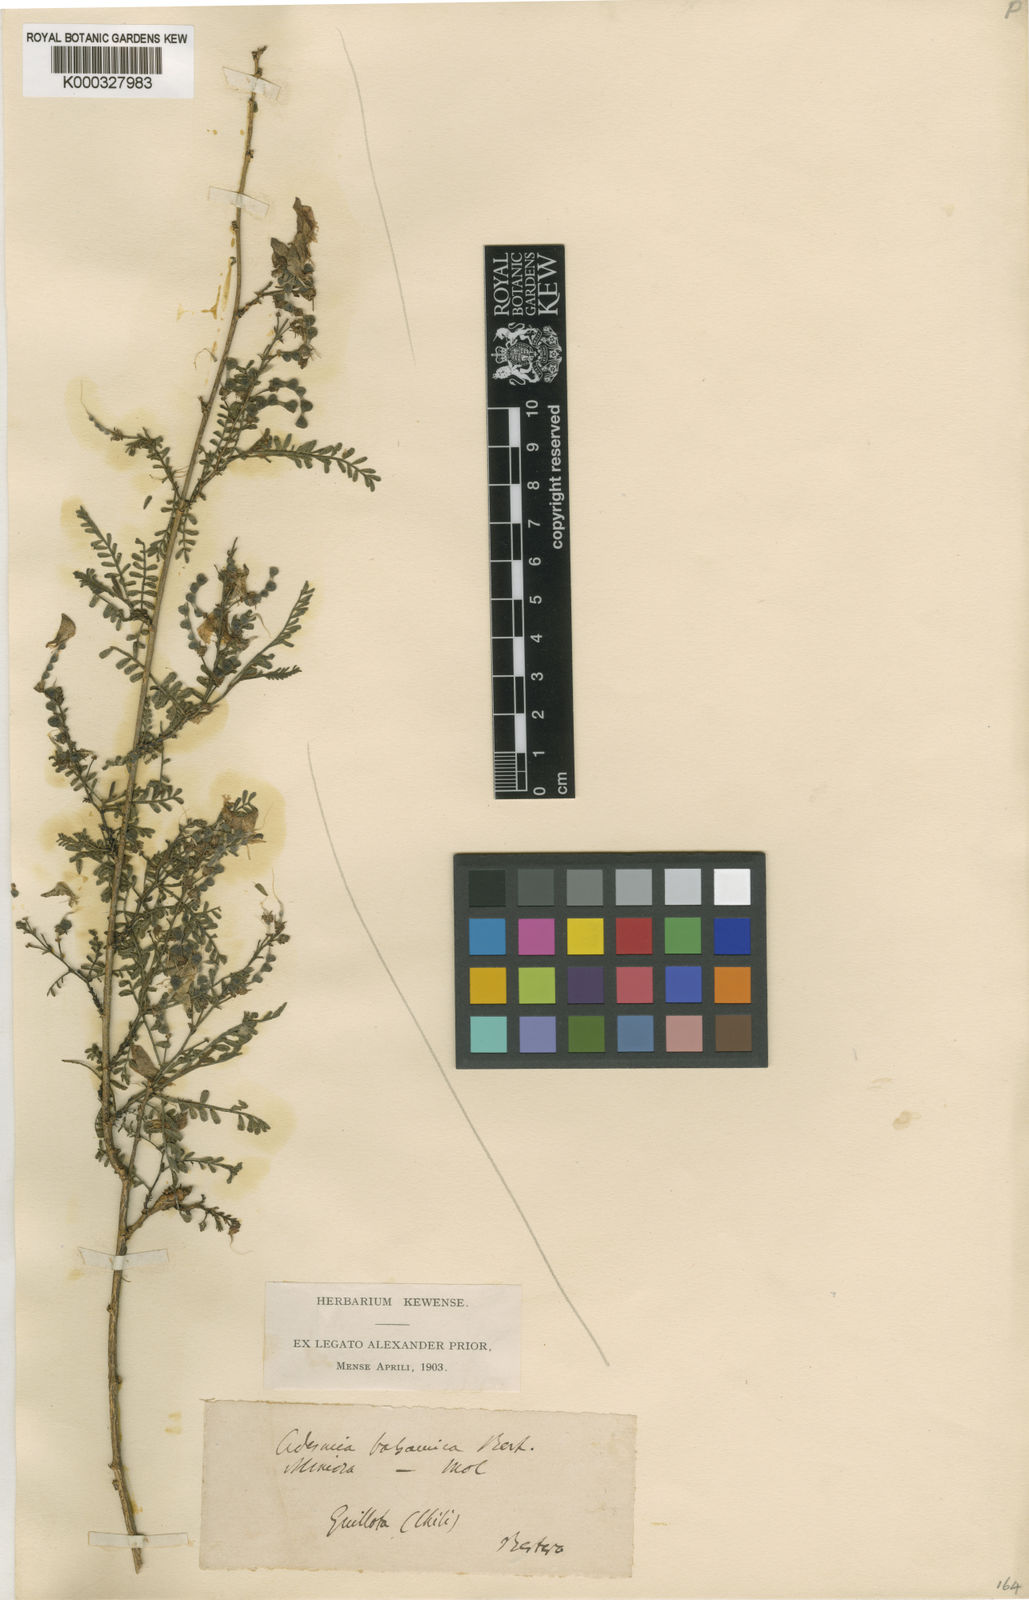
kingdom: Plantae
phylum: Tracheophyta
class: Magnoliopsida
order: Fabales
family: Fabaceae
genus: Adesmia
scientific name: Adesmia balsamica
